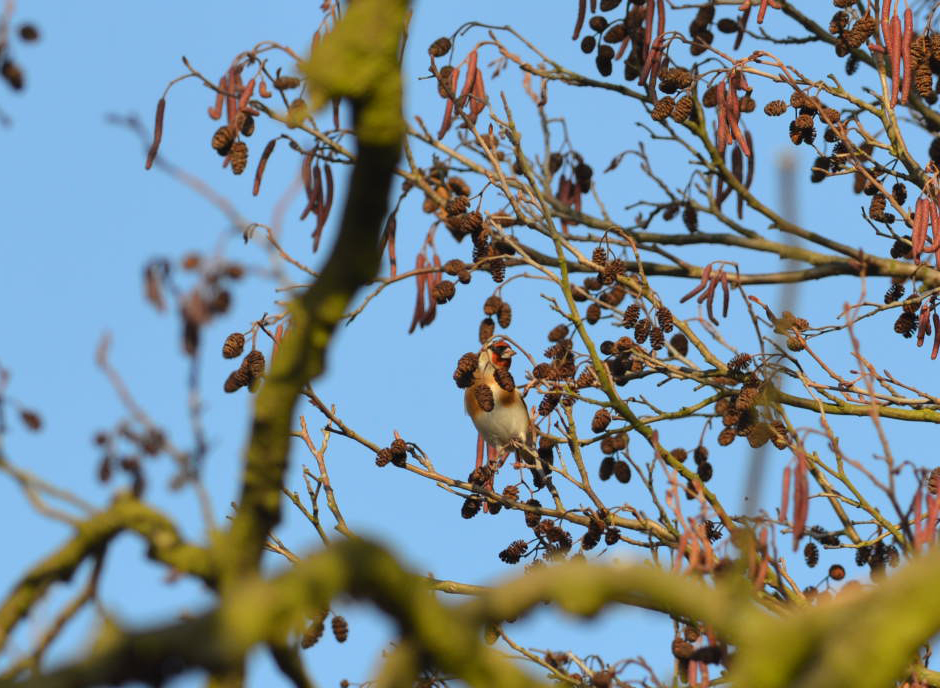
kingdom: Animalia
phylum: Chordata
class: Aves
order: Passeriformes
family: Fringillidae
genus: Carduelis
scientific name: Carduelis carduelis
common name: European goldfinch
